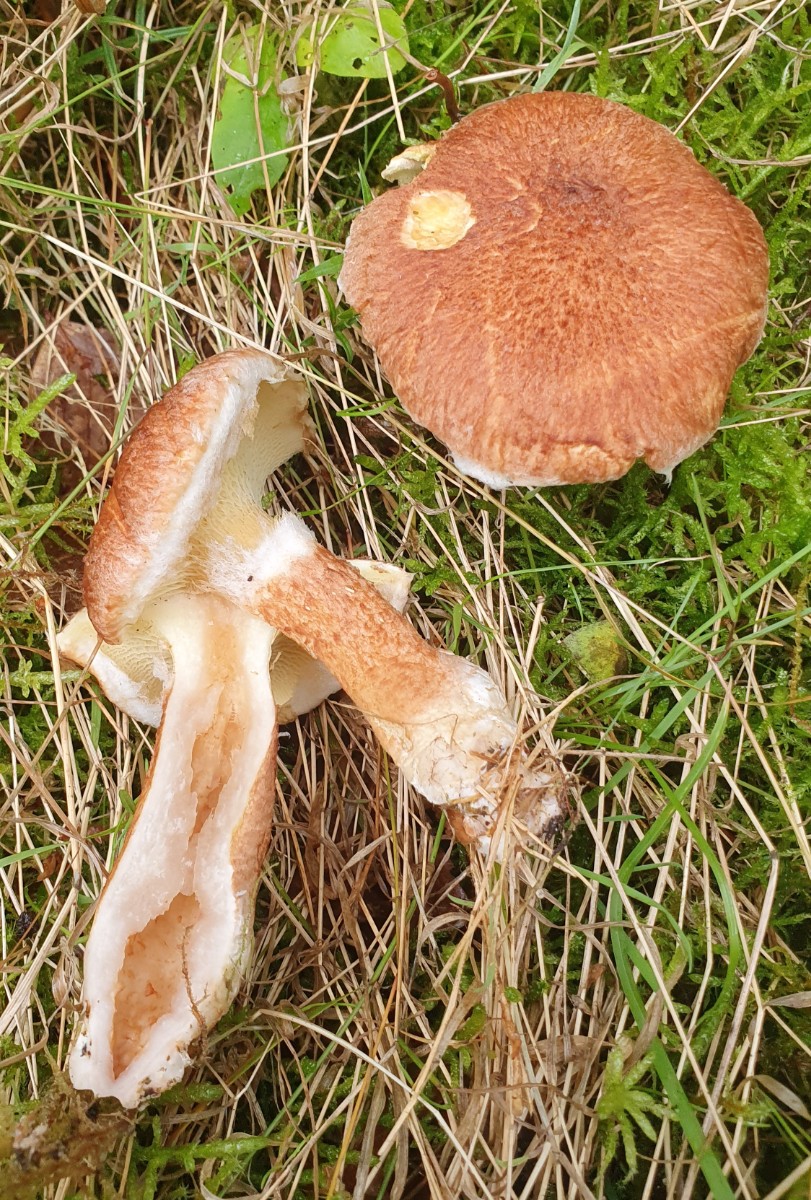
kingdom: Fungi
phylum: Basidiomycota
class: Agaricomycetes
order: Boletales
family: Suillaceae
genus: Suillus
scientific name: Suillus cavipes
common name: hulstokket slimrørhat
